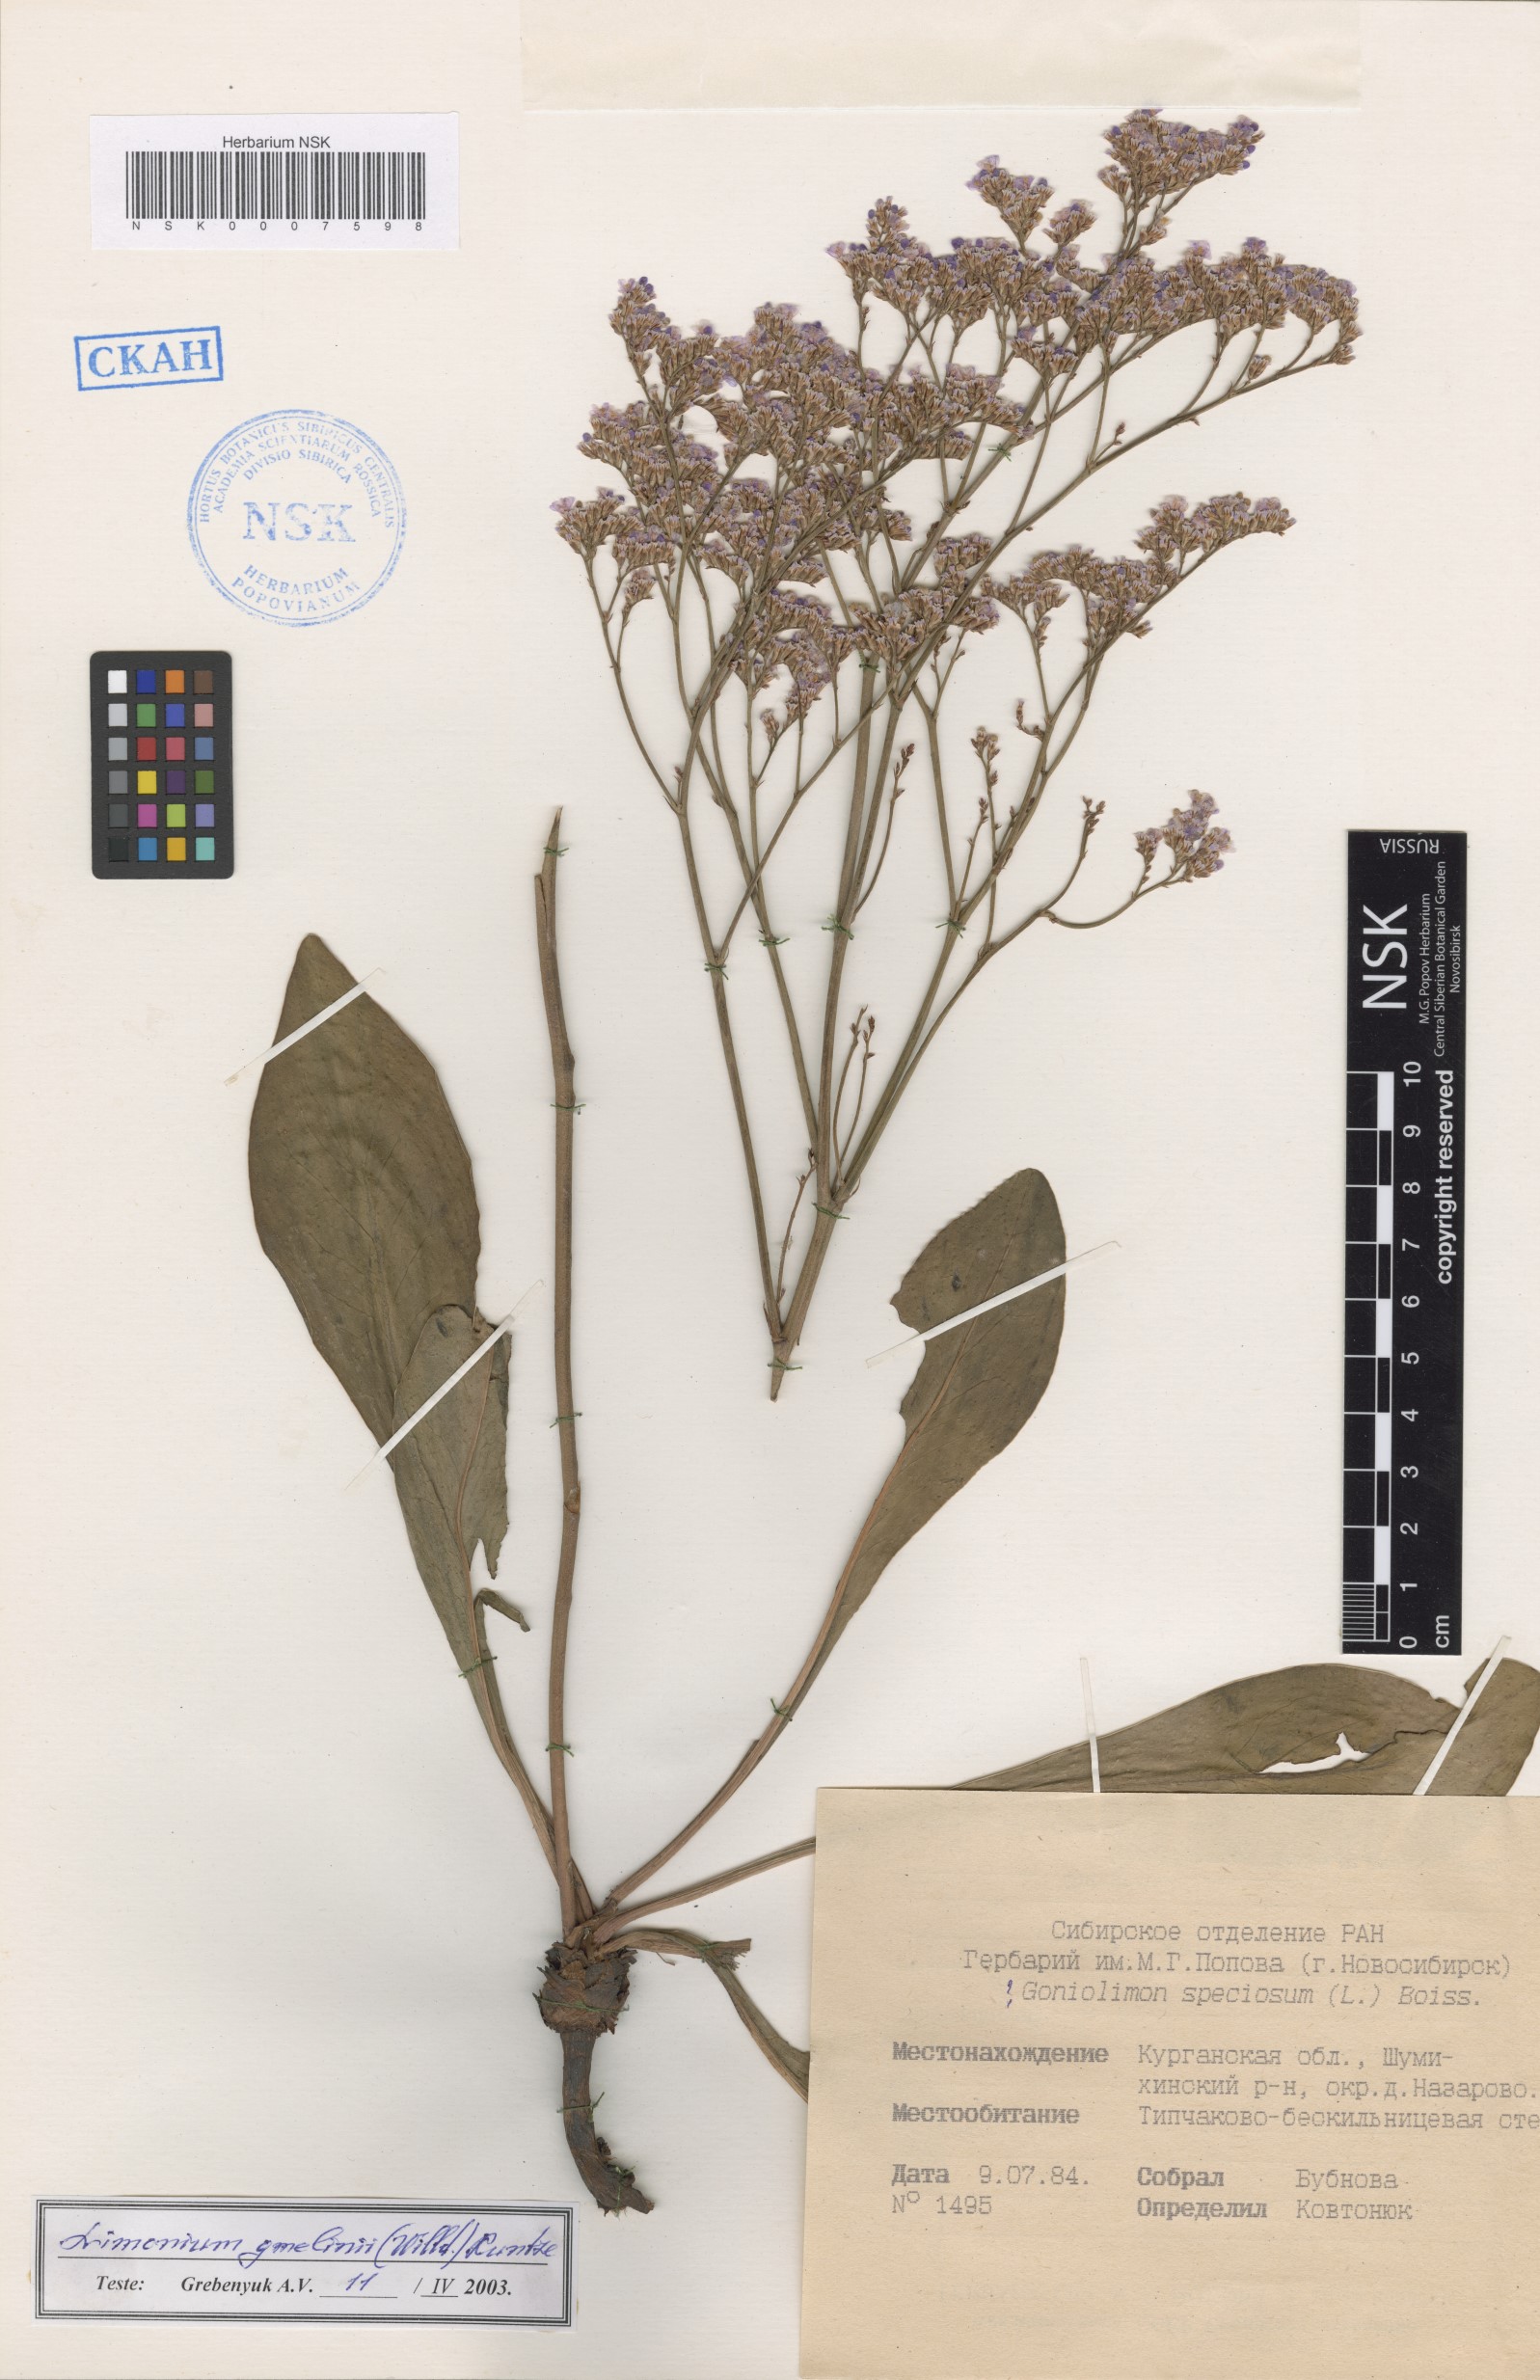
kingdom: Plantae
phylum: Tracheophyta
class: Magnoliopsida
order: Caryophyllales
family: Plumbaginaceae
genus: Limonium
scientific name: Limonium gmelini
